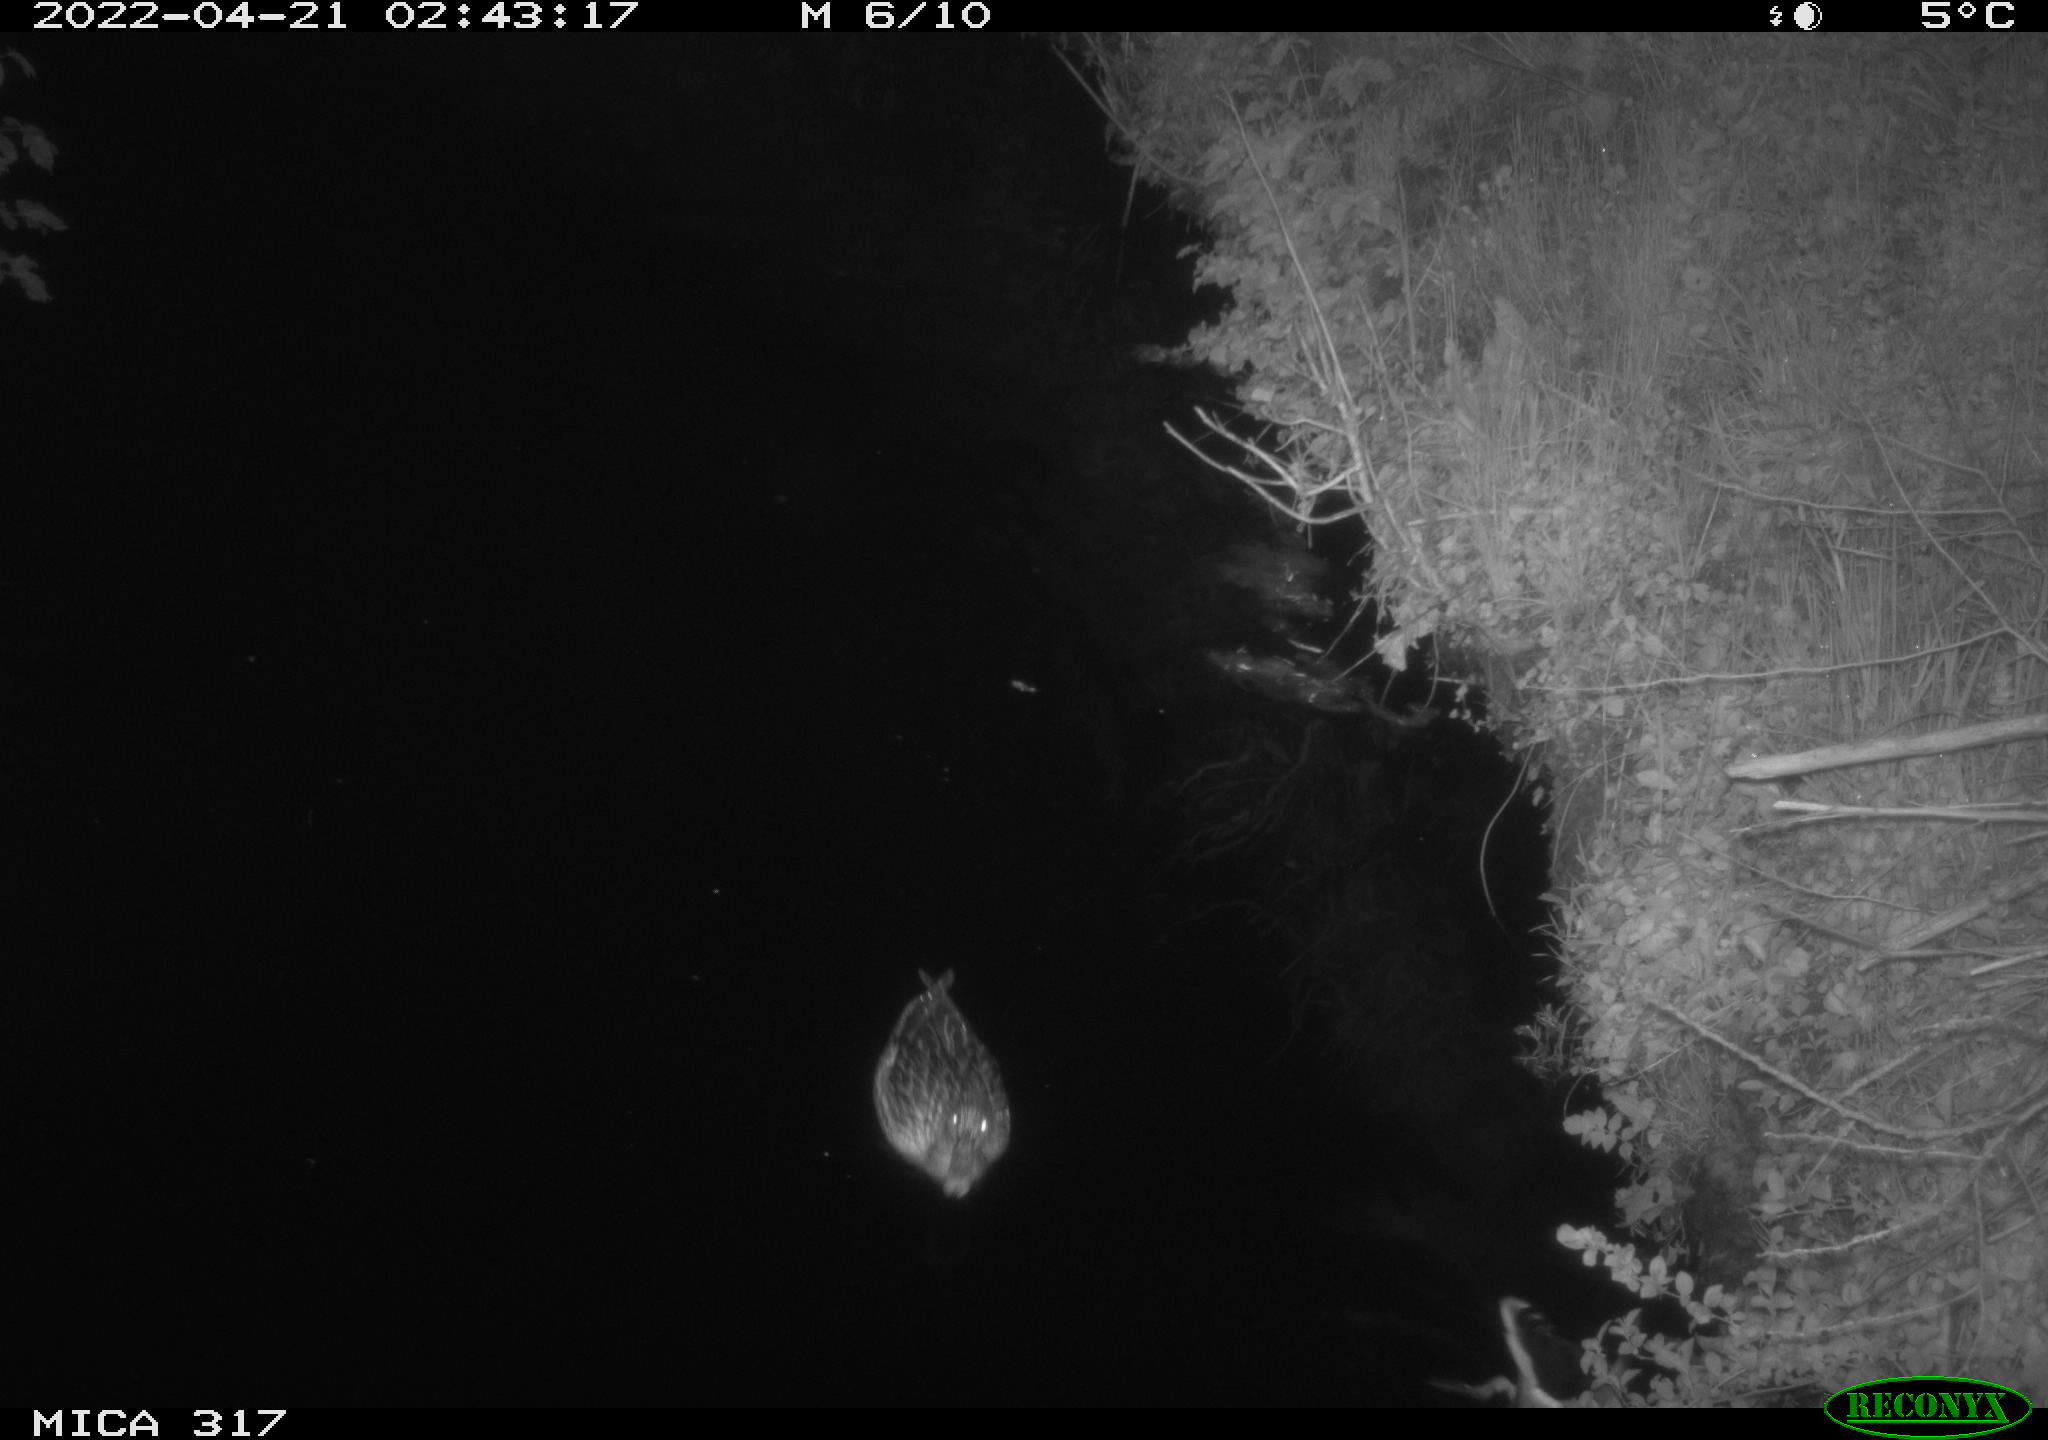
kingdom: Animalia
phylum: Chordata
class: Aves
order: Anseriformes
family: Anatidae
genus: Anas
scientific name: Anas platyrhynchos
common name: Mallard
